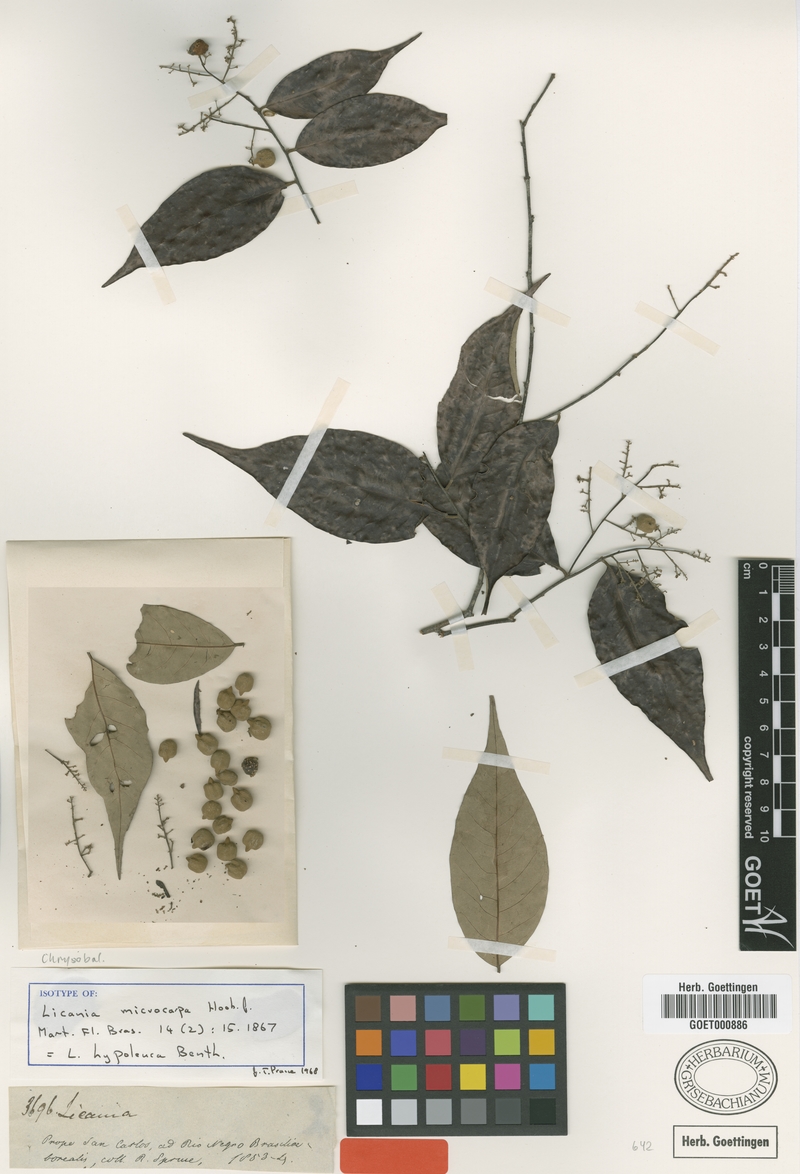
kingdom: Plantae
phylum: Tracheophyta
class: Magnoliopsida
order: Malpighiales
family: Chrysobalanaceae
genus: Licania
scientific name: Licania hypoleuca
